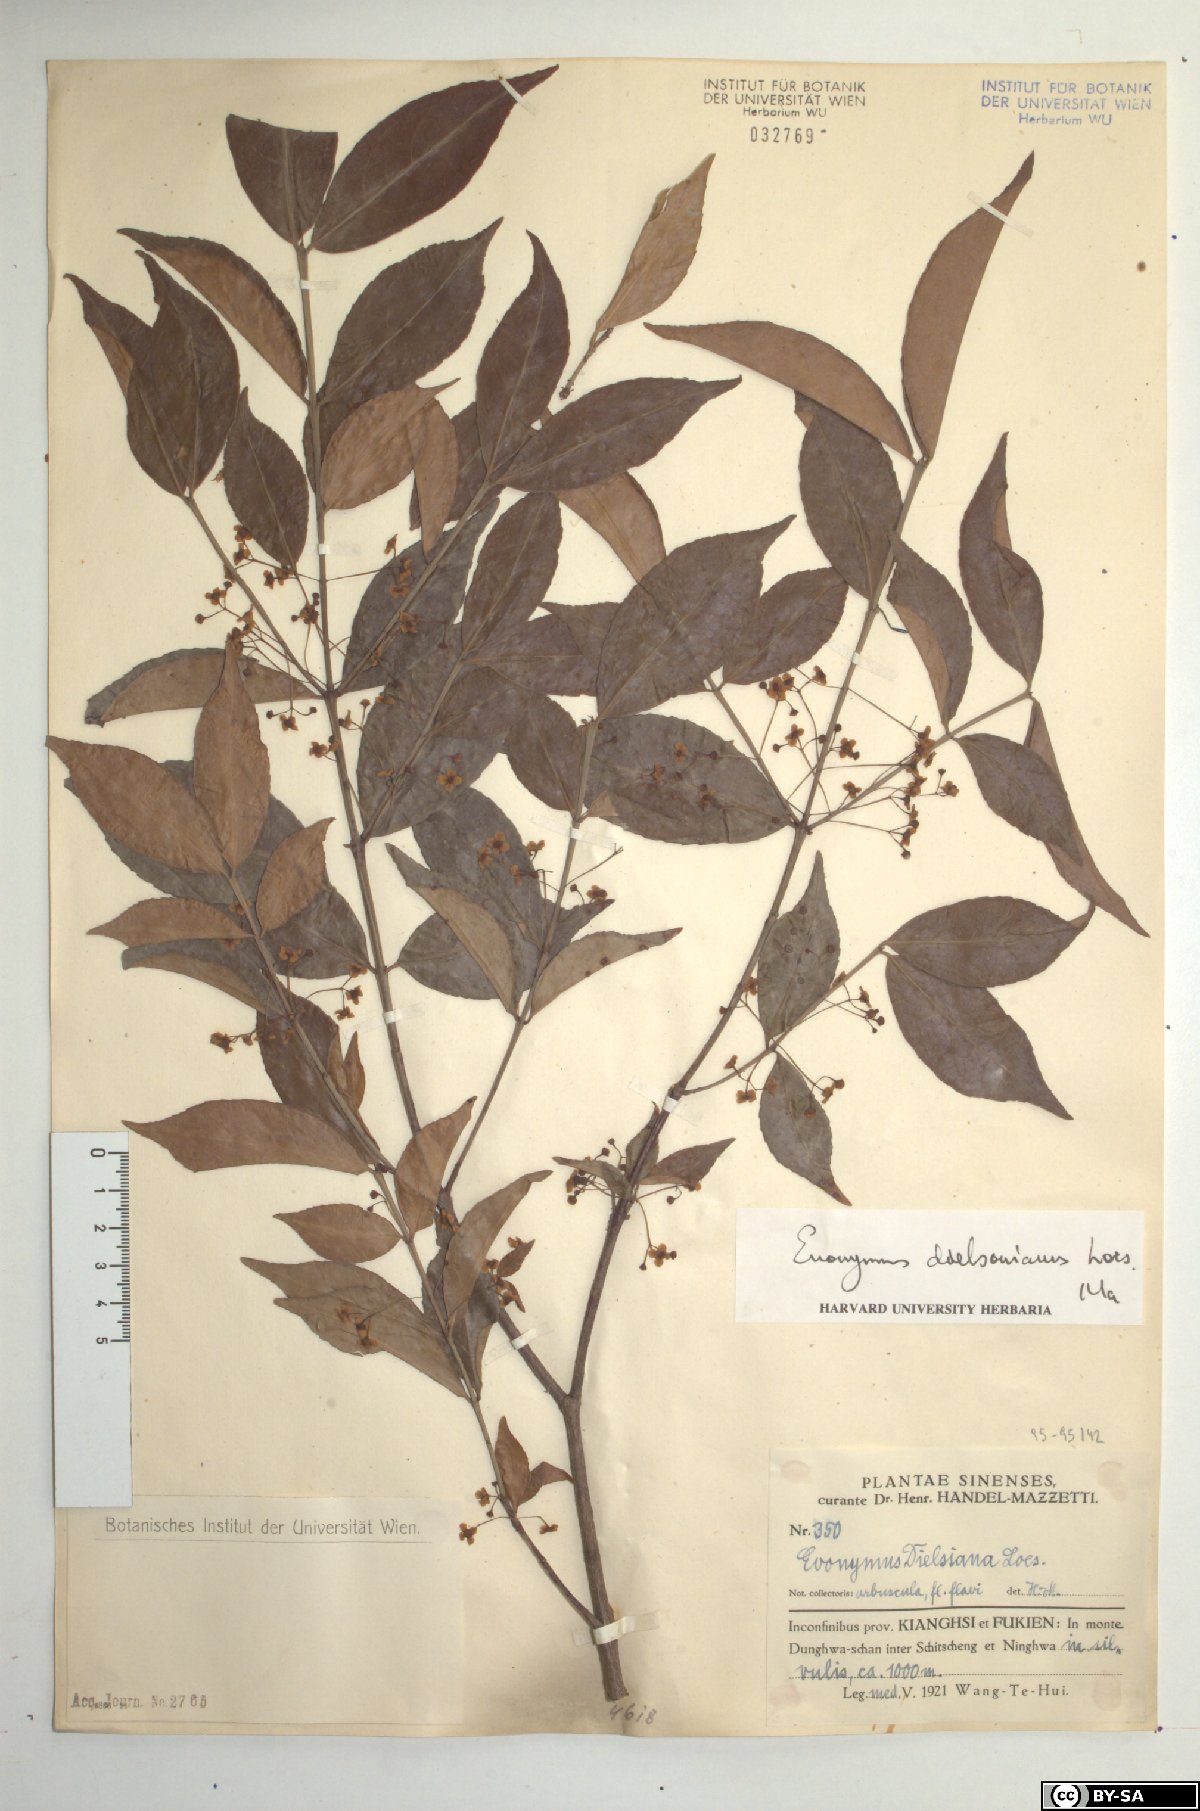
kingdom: Plantae
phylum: Tracheophyta
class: Magnoliopsida
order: Celastrales
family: Celastraceae
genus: Euonymus
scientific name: Euonymus dielsianus
